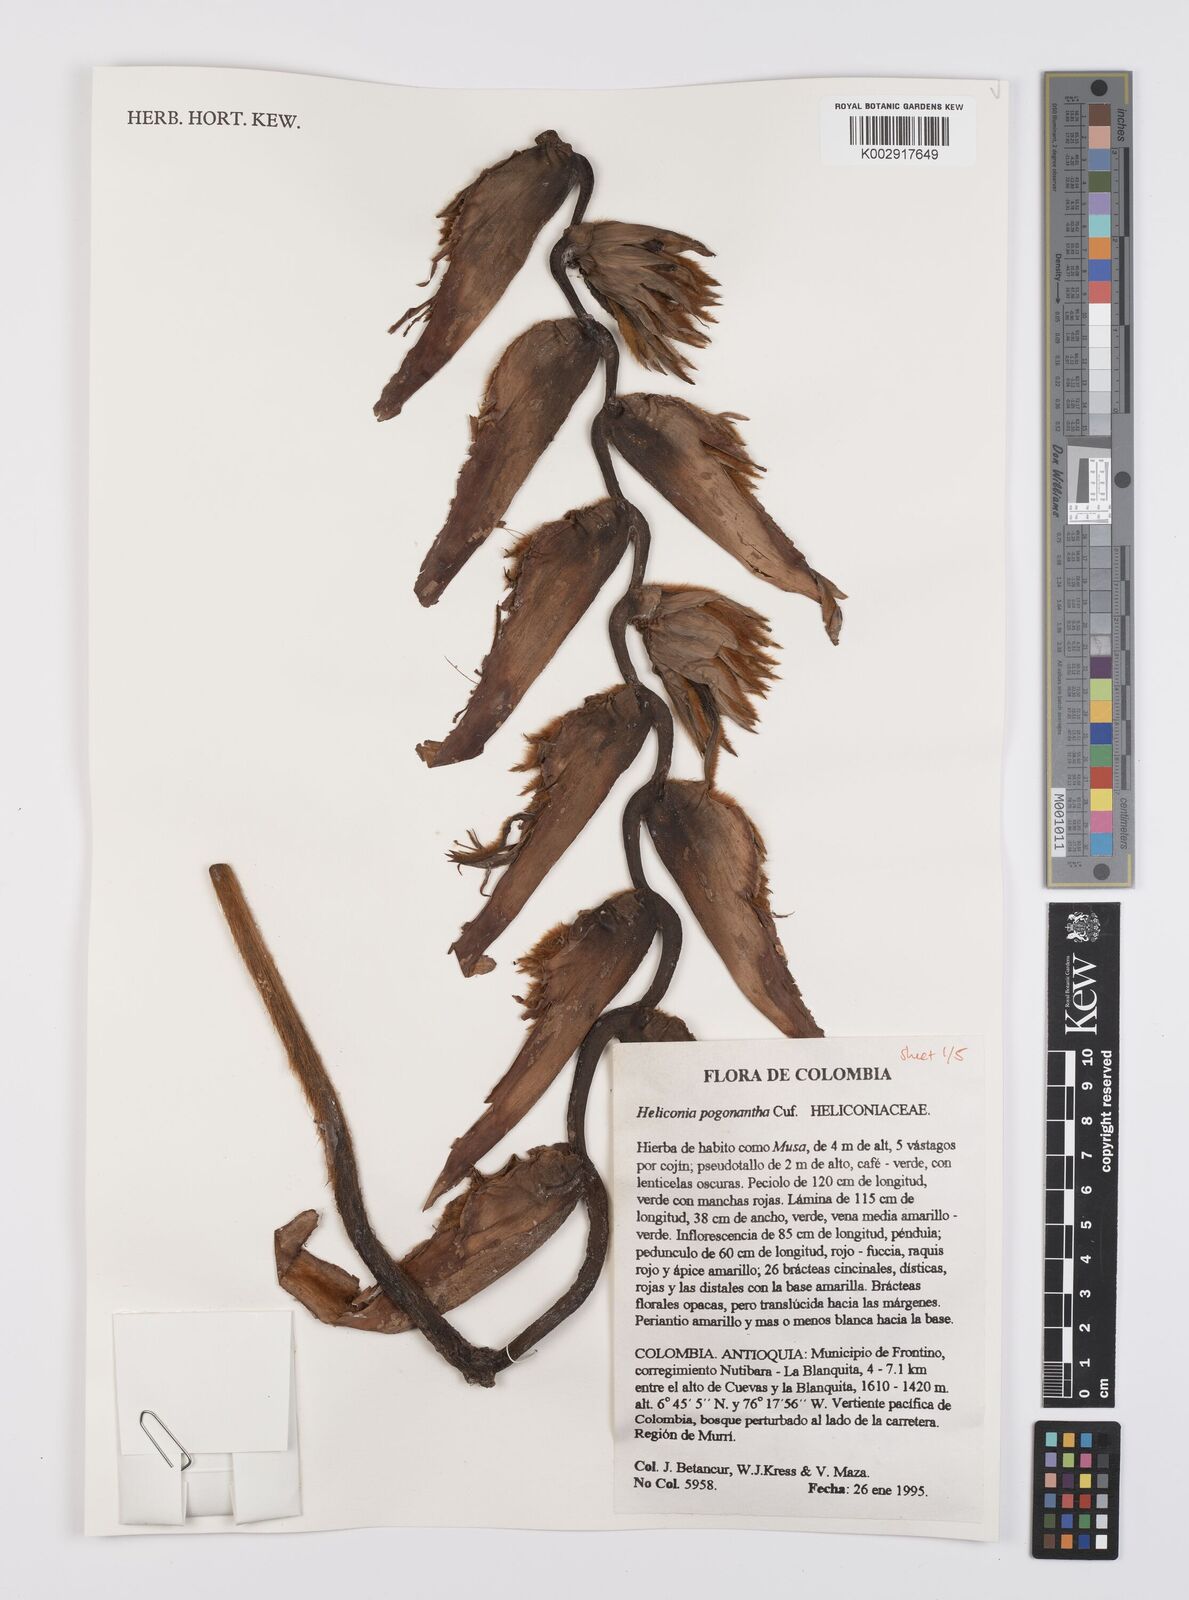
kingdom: Plantae
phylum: Tracheophyta
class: Liliopsida
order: Zingiberales
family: Heliconiaceae
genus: Heliconia
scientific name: Heliconia pogonantha
